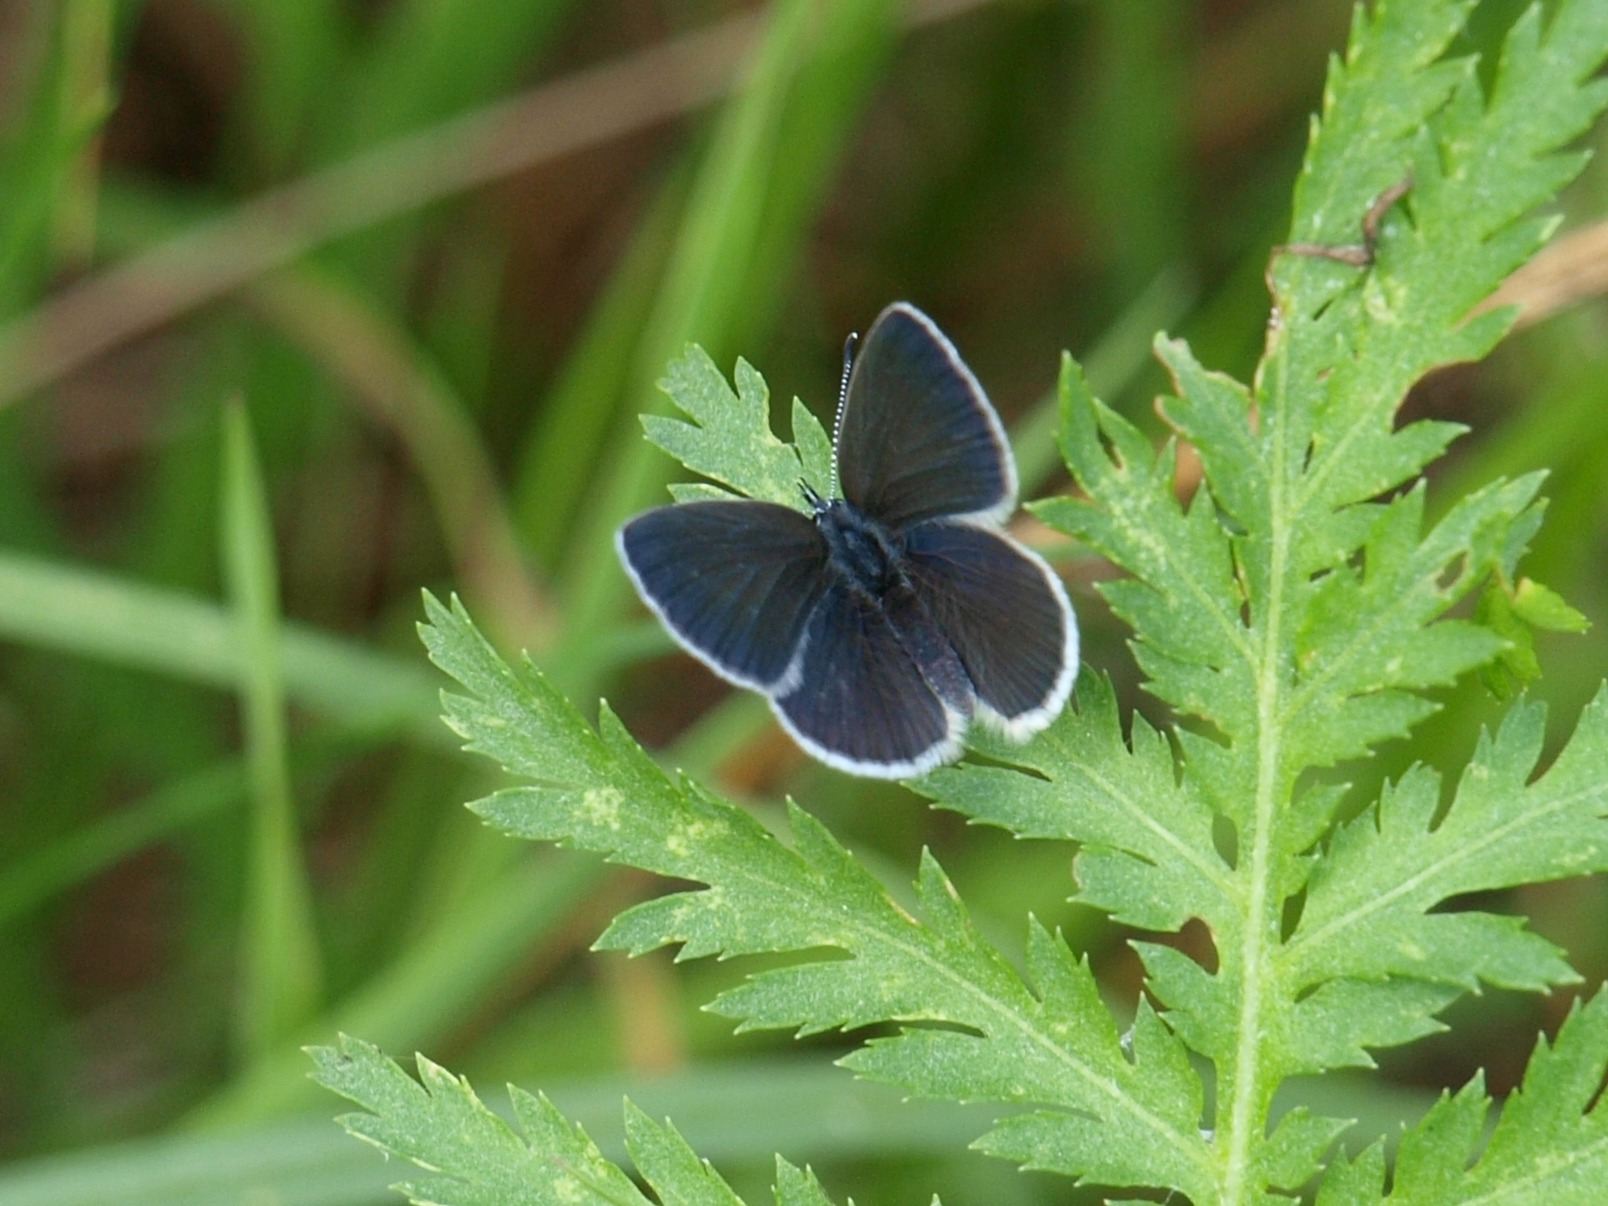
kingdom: Animalia
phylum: Arthropoda
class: Insecta
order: Lepidoptera
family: Lycaenidae
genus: Cupido
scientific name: Cupido minimus
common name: Dværgblåfugl
